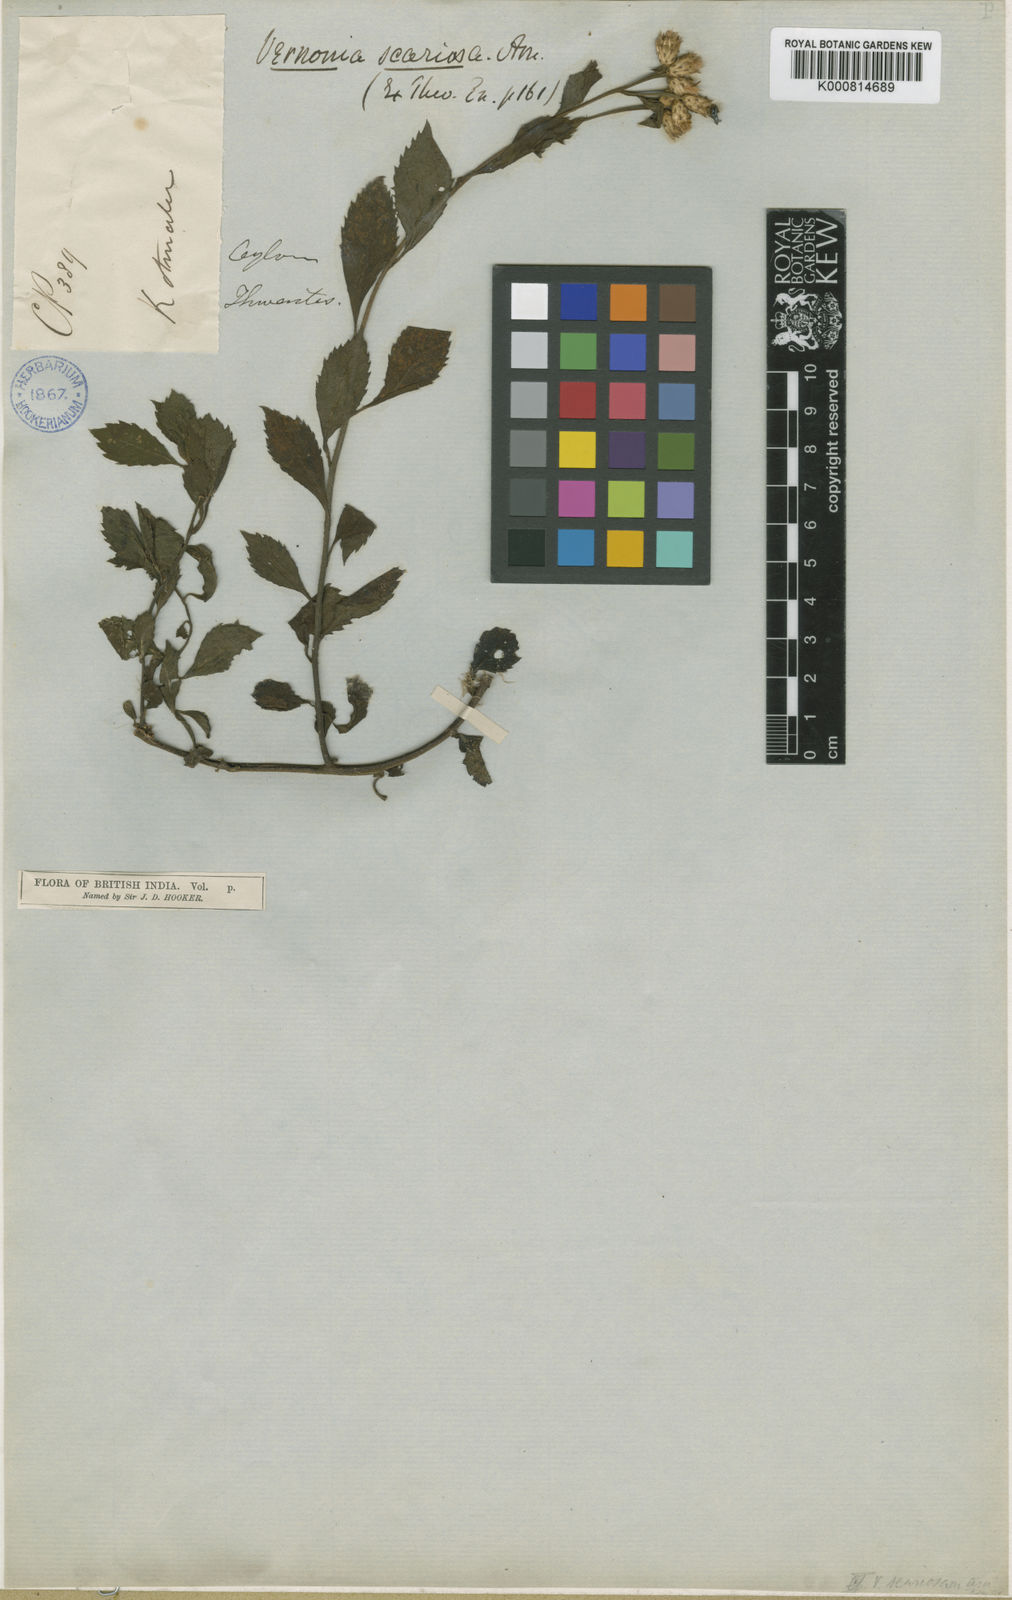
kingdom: Plantae
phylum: Tracheophyta
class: Magnoliopsida
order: Asterales
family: Asteraceae
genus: Acilepis
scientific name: Acilepis scariosa
